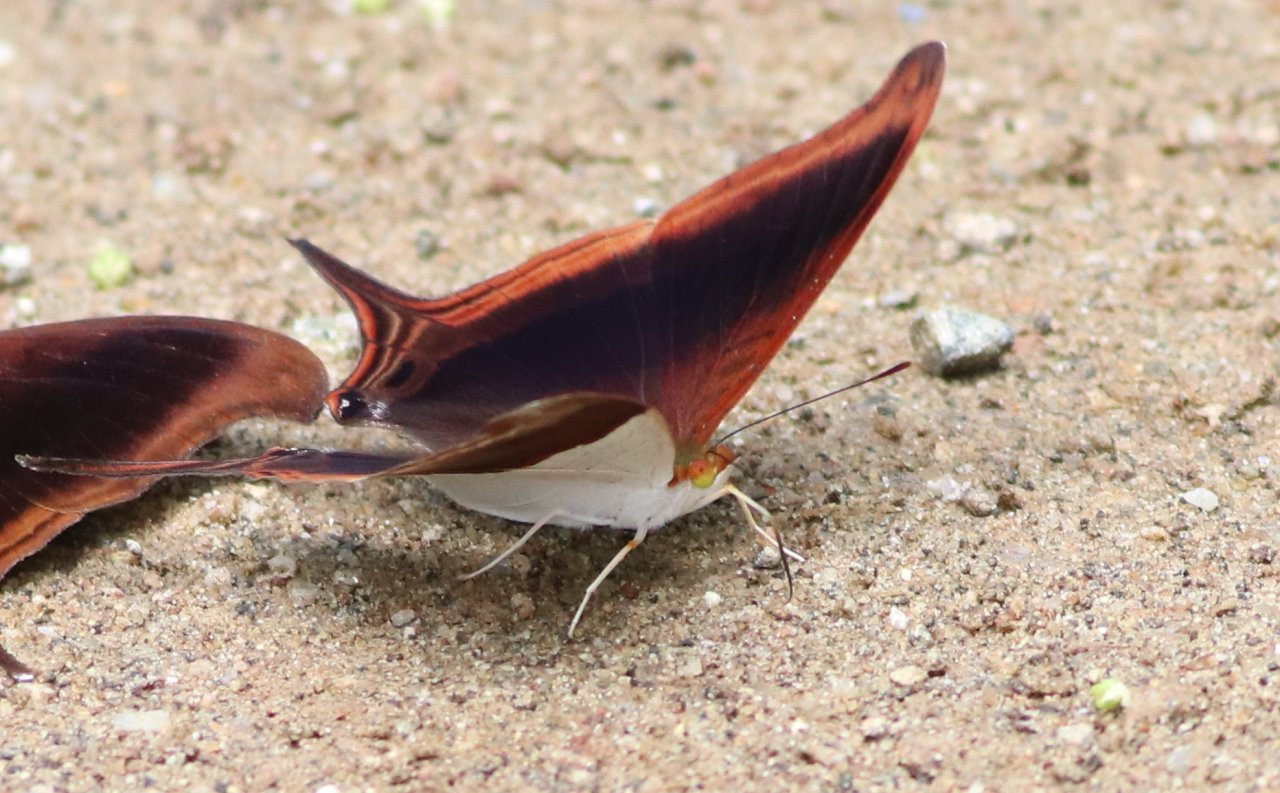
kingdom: Animalia
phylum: Arthropoda
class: Insecta
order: Lepidoptera
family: Nymphalidae
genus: Marpesia
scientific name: Marpesia zerynthia
